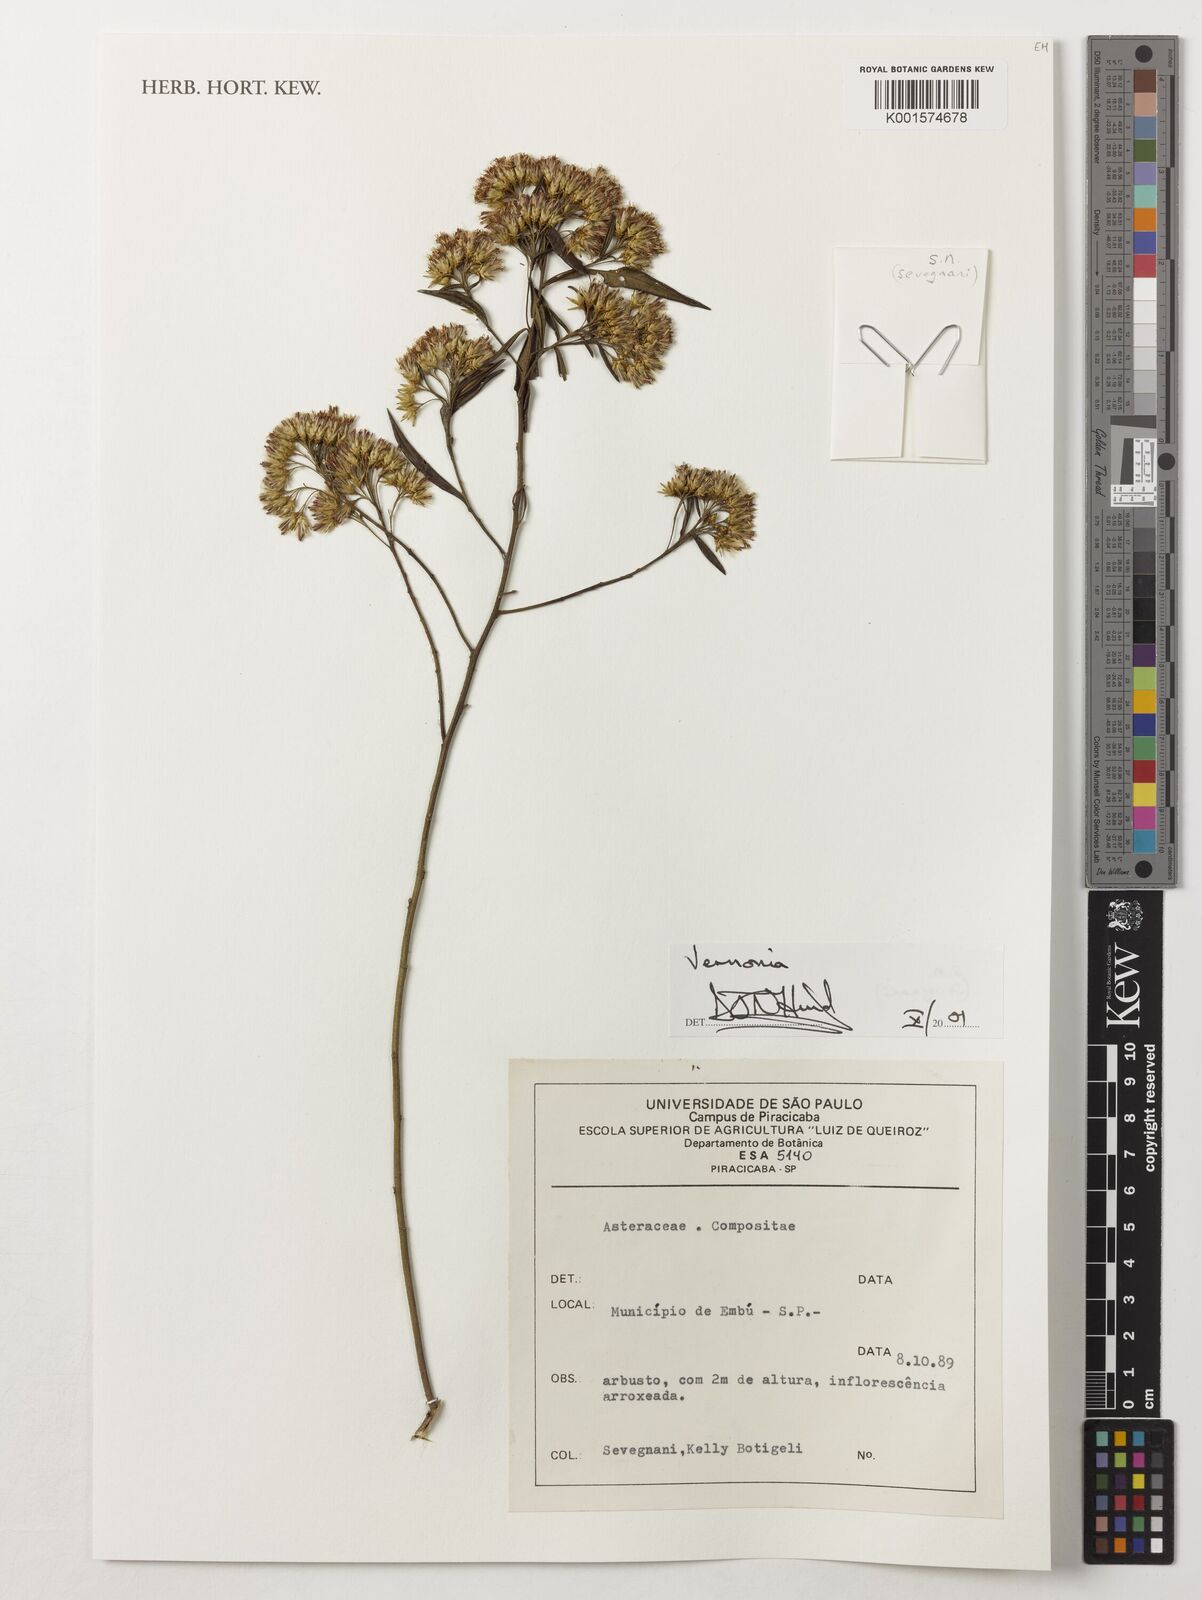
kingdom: Plantae
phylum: Tracheophyta
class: Magnoliopsida
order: Asterales
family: Asteraceae
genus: Vernonia
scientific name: Vernonia
